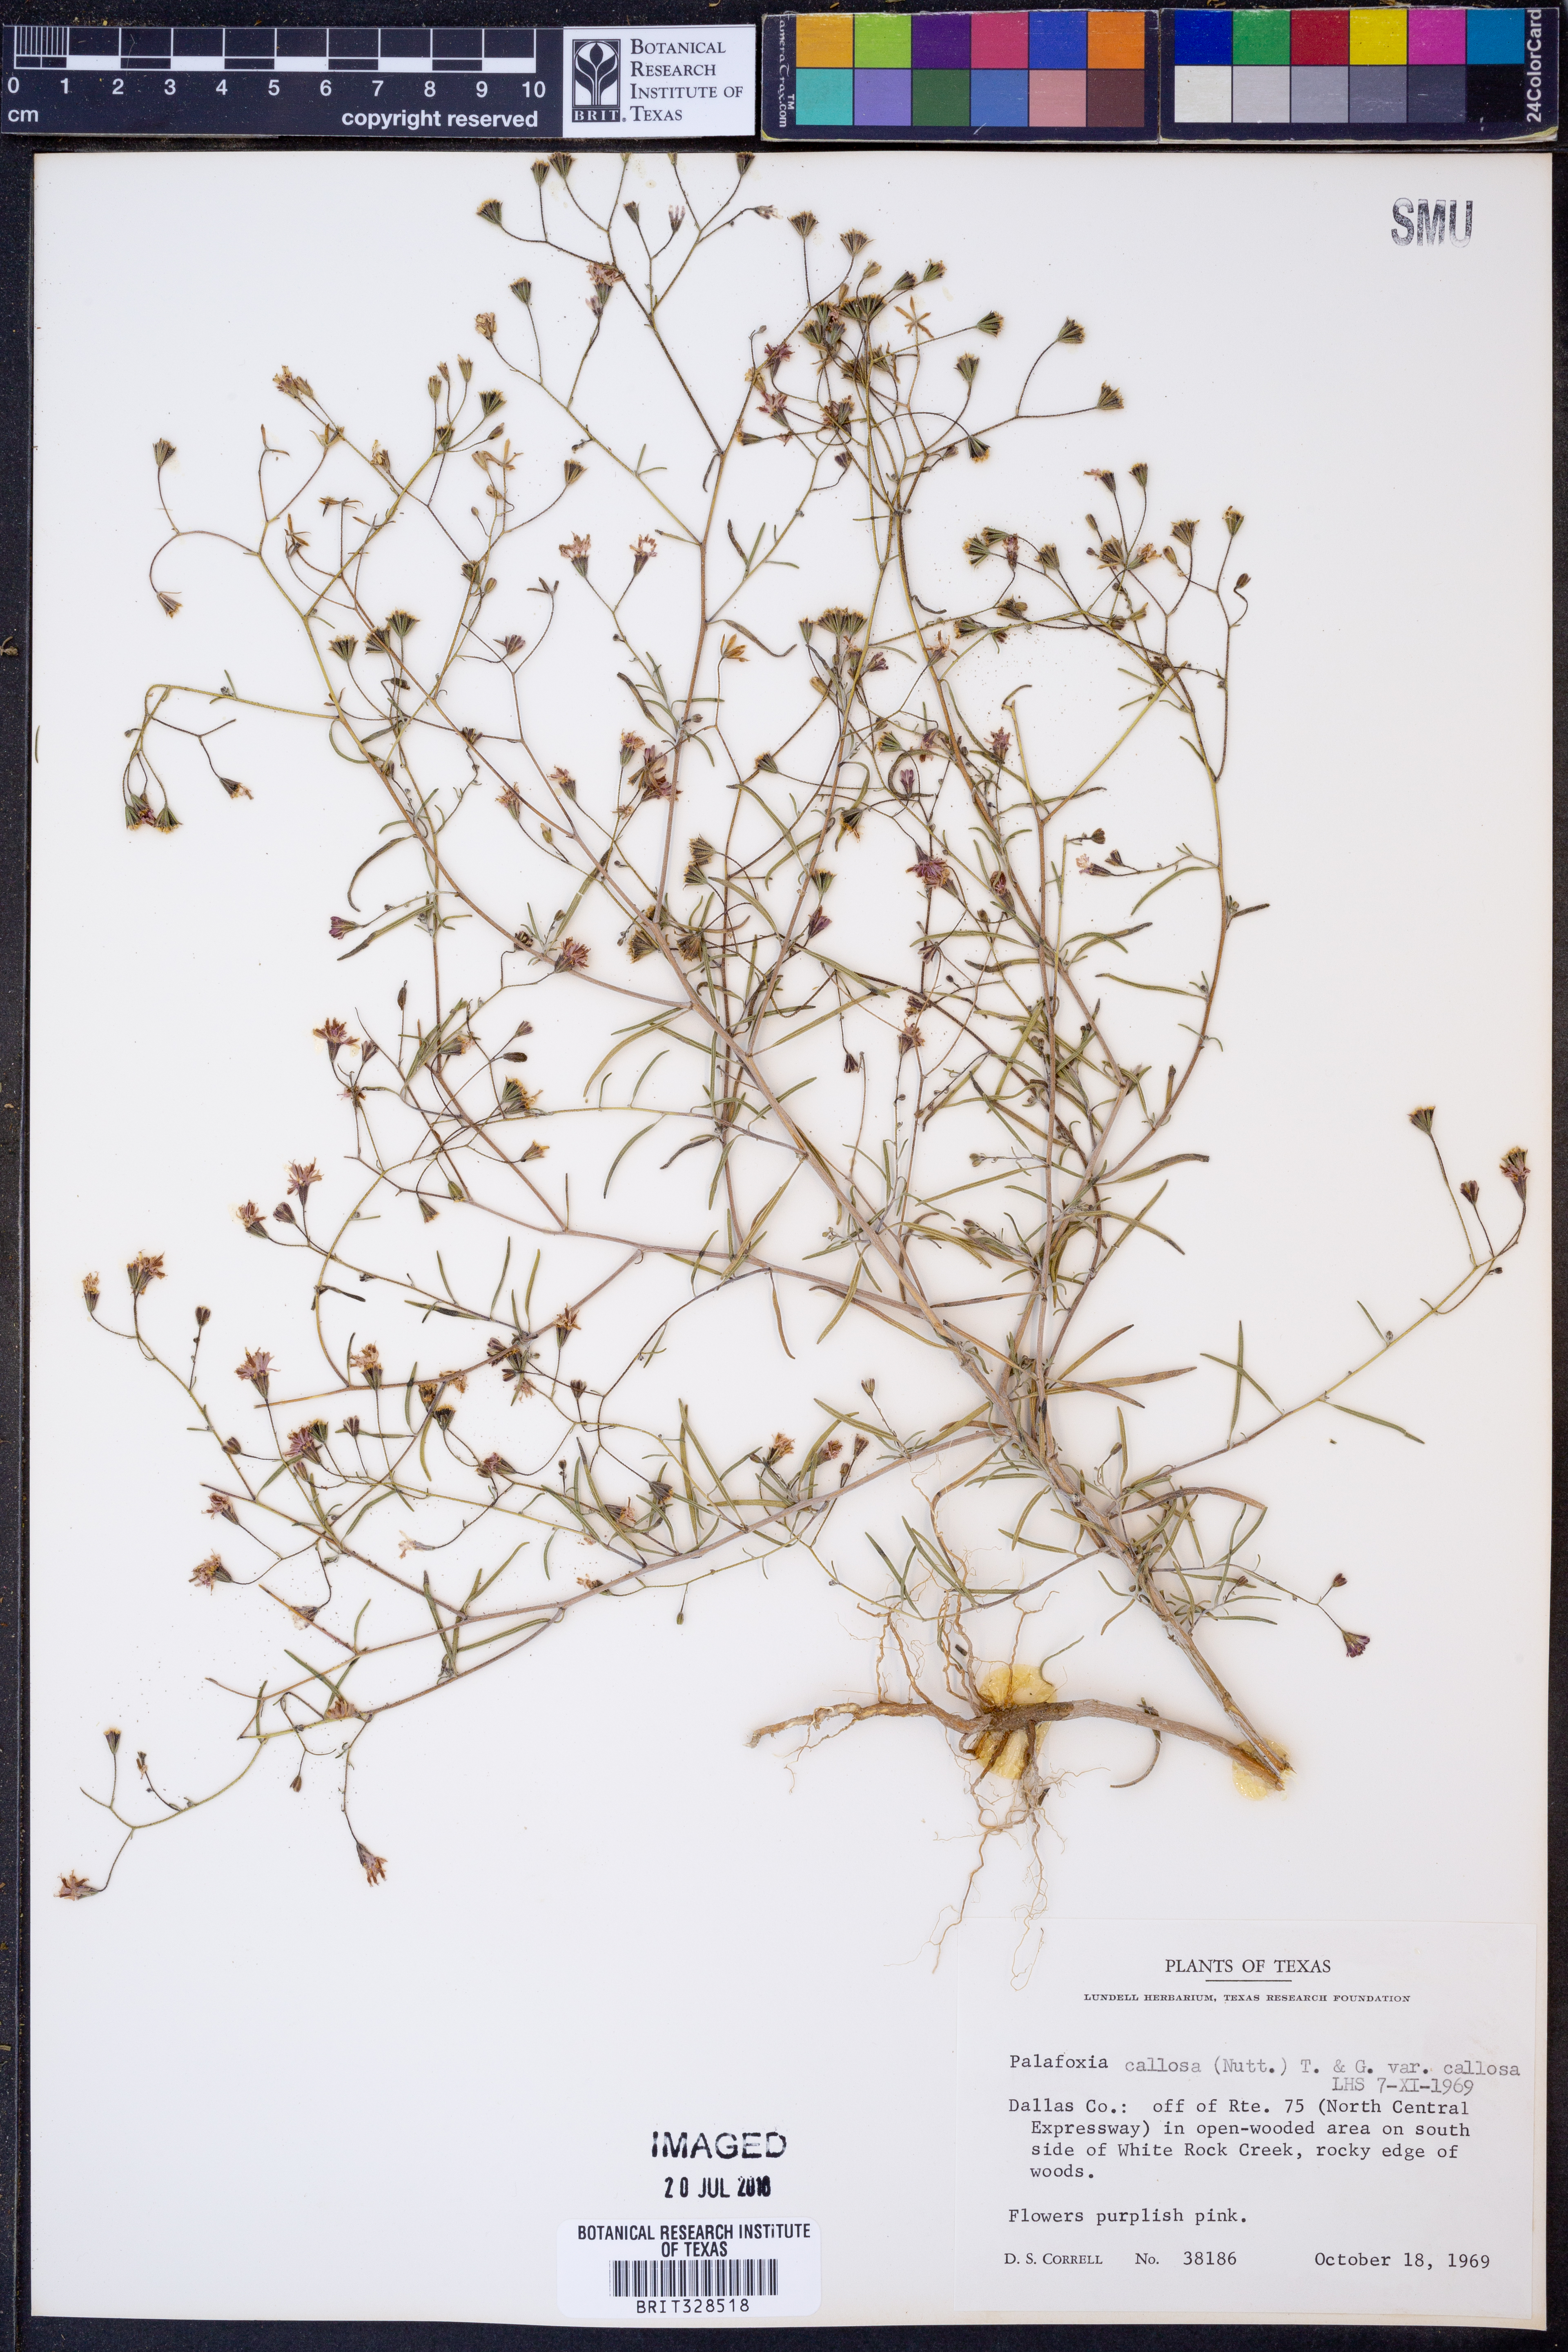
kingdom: Plantae
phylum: Tracheophyta
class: Magnoliopsida
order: Asterales
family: Asteraceae
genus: Palafoxia
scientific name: Palafoxia callosa
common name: Small palafox
